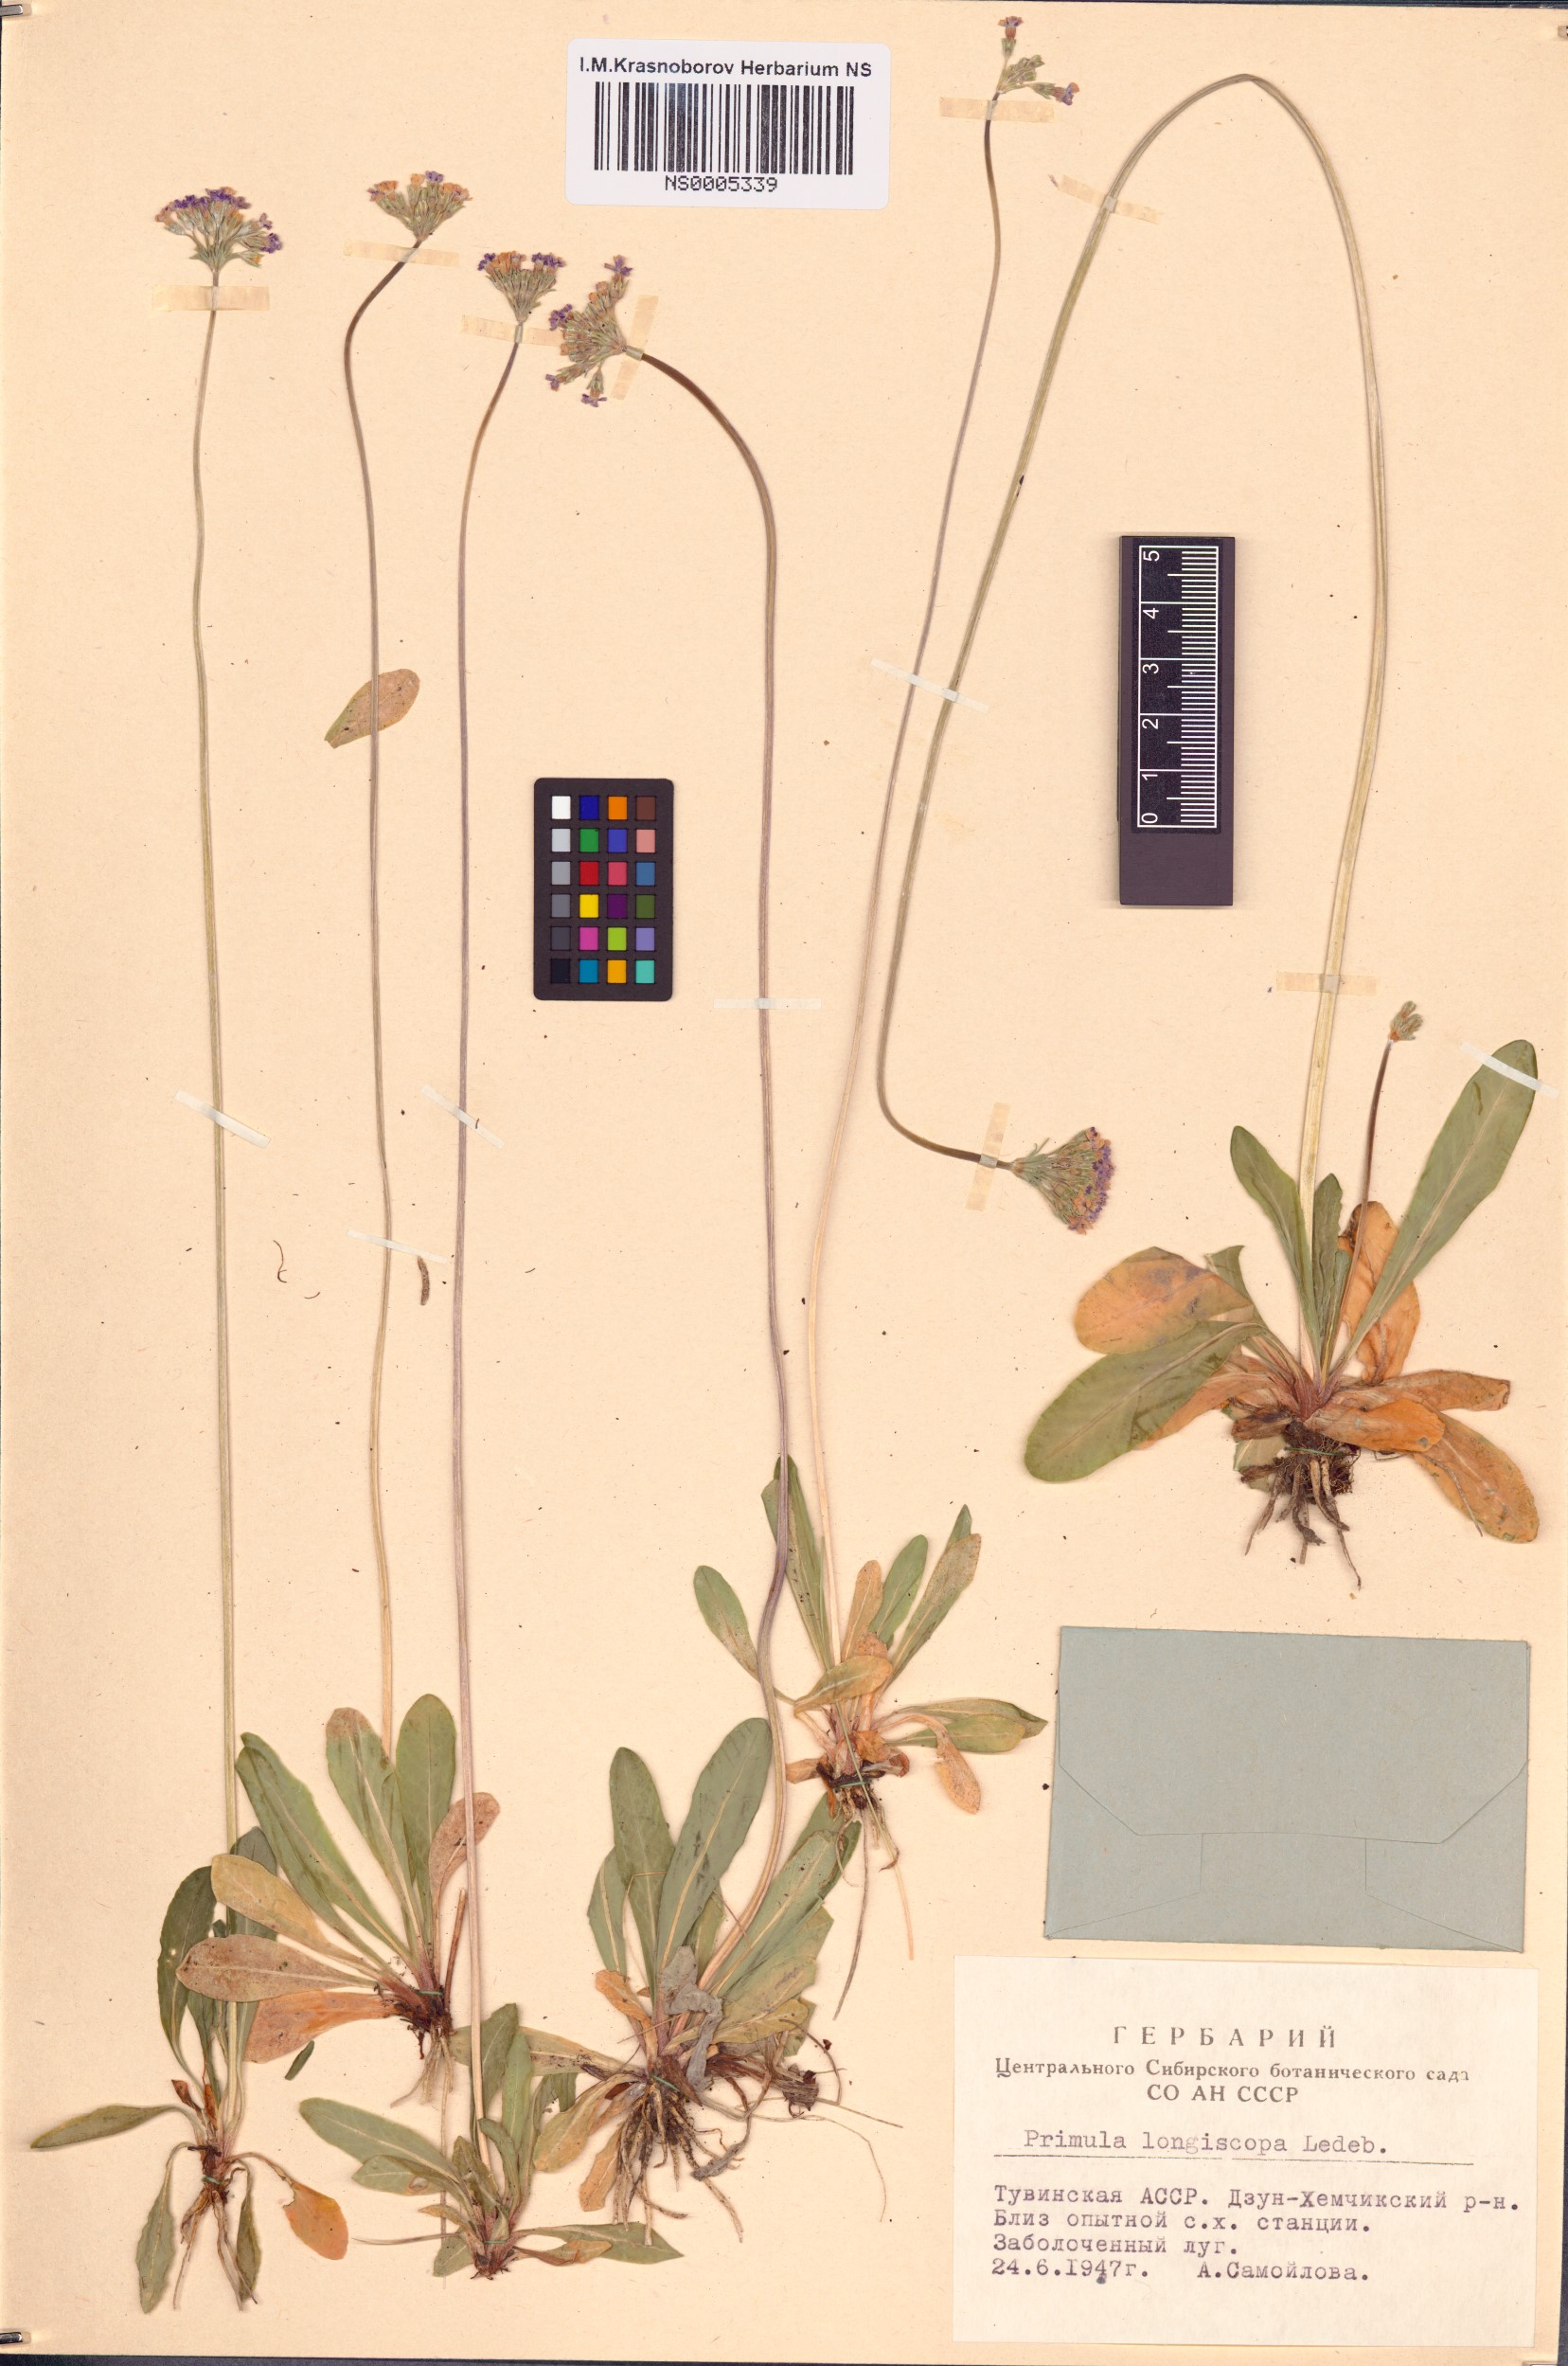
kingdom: Plantae
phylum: Tracheophyta
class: Magnoliopsida
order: Ericales
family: Primulaceae
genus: Primula
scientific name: Primula longiscapa
